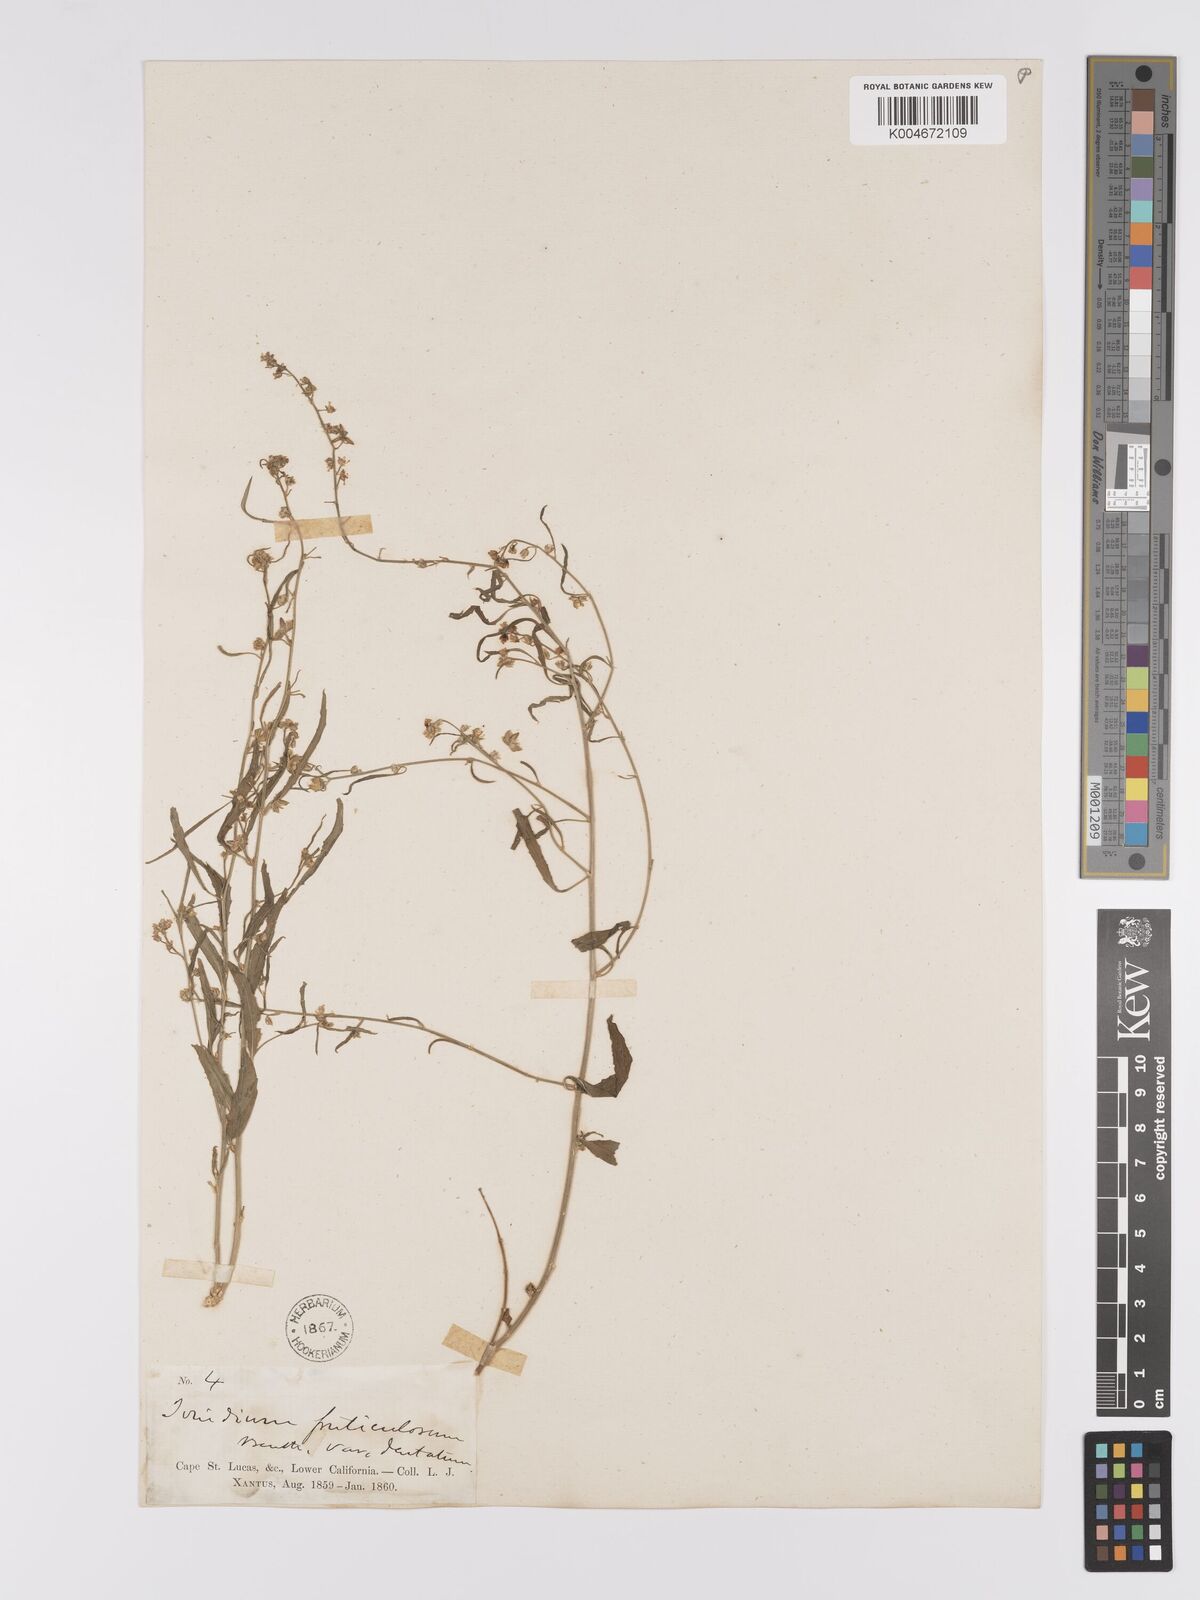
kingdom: Plantae
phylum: Tracheophyta
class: Magnoliopsida
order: Malpighiales
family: Violaceae
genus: Hybanthus
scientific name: Hybanthus fruticulosus
